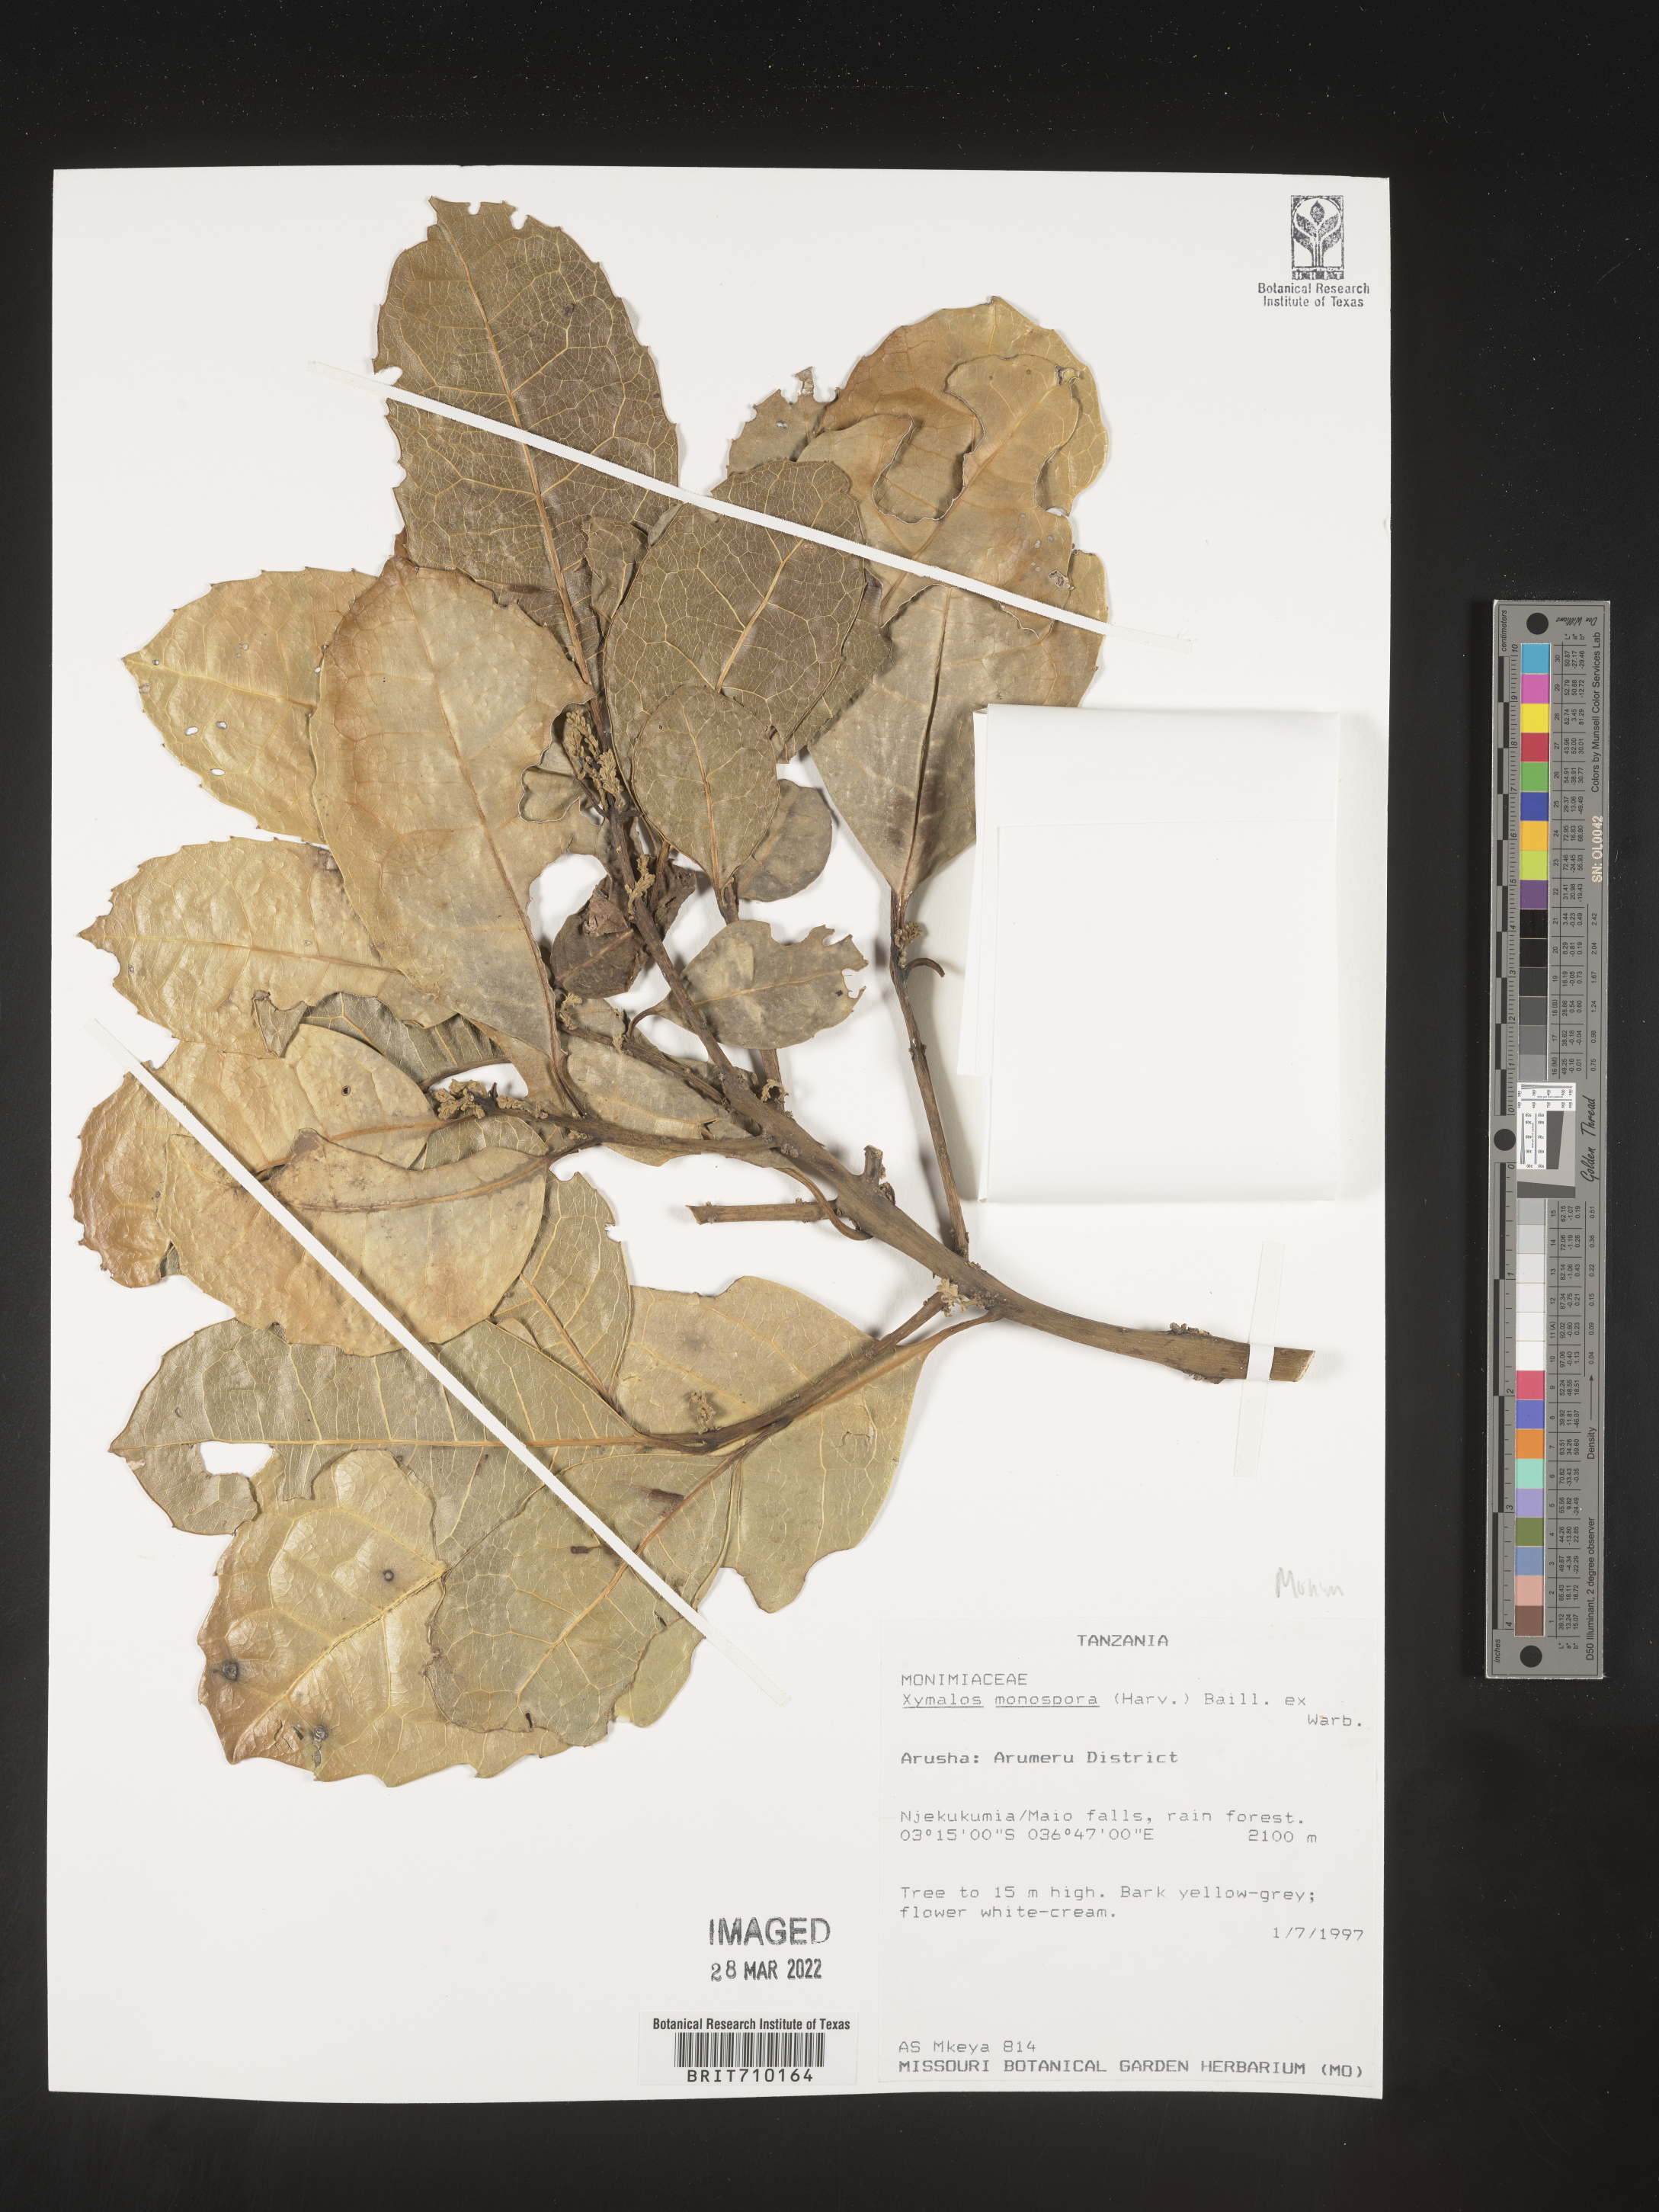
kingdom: Plantae
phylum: Tracheophyta
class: Magnoliopsida
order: Laurales
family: Monimiaceae
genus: Xymalos
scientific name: Xymalos
